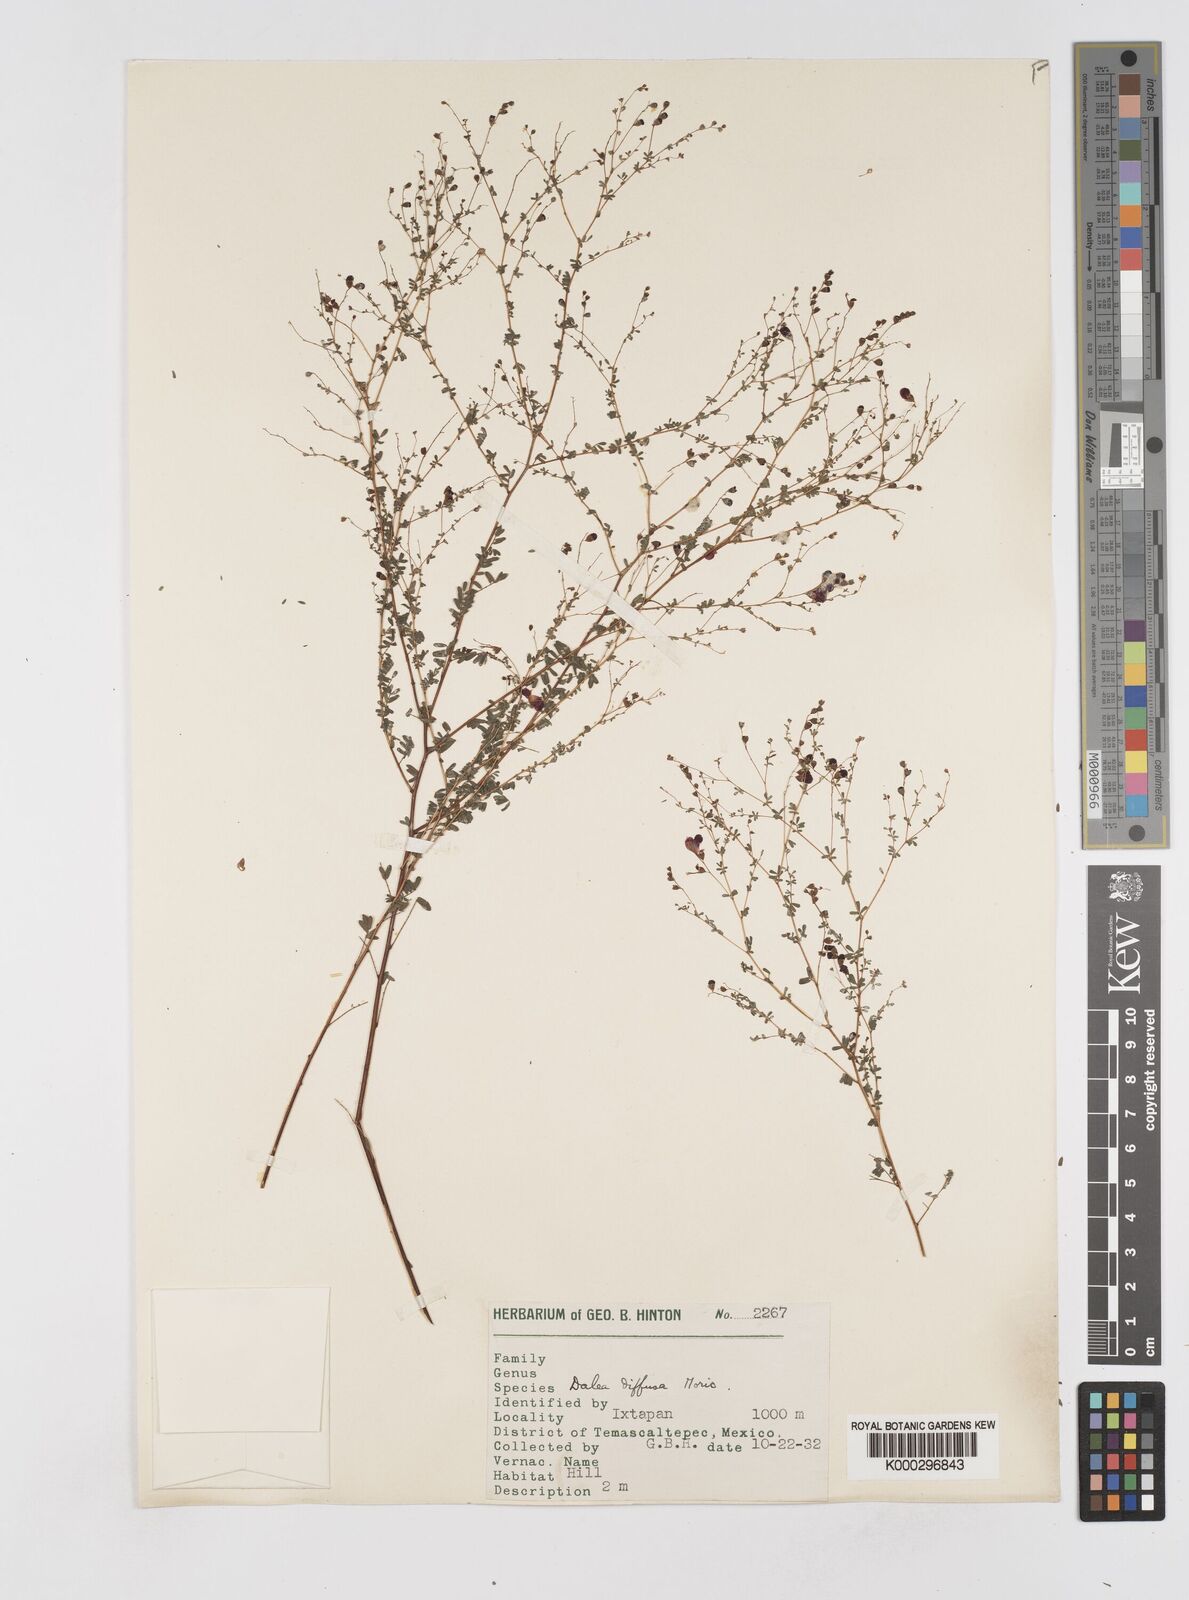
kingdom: Plantae
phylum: Tracheophyta
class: Magnoliopsida
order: Fabales
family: Fabaceae
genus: Marina
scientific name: Marina diffusa
